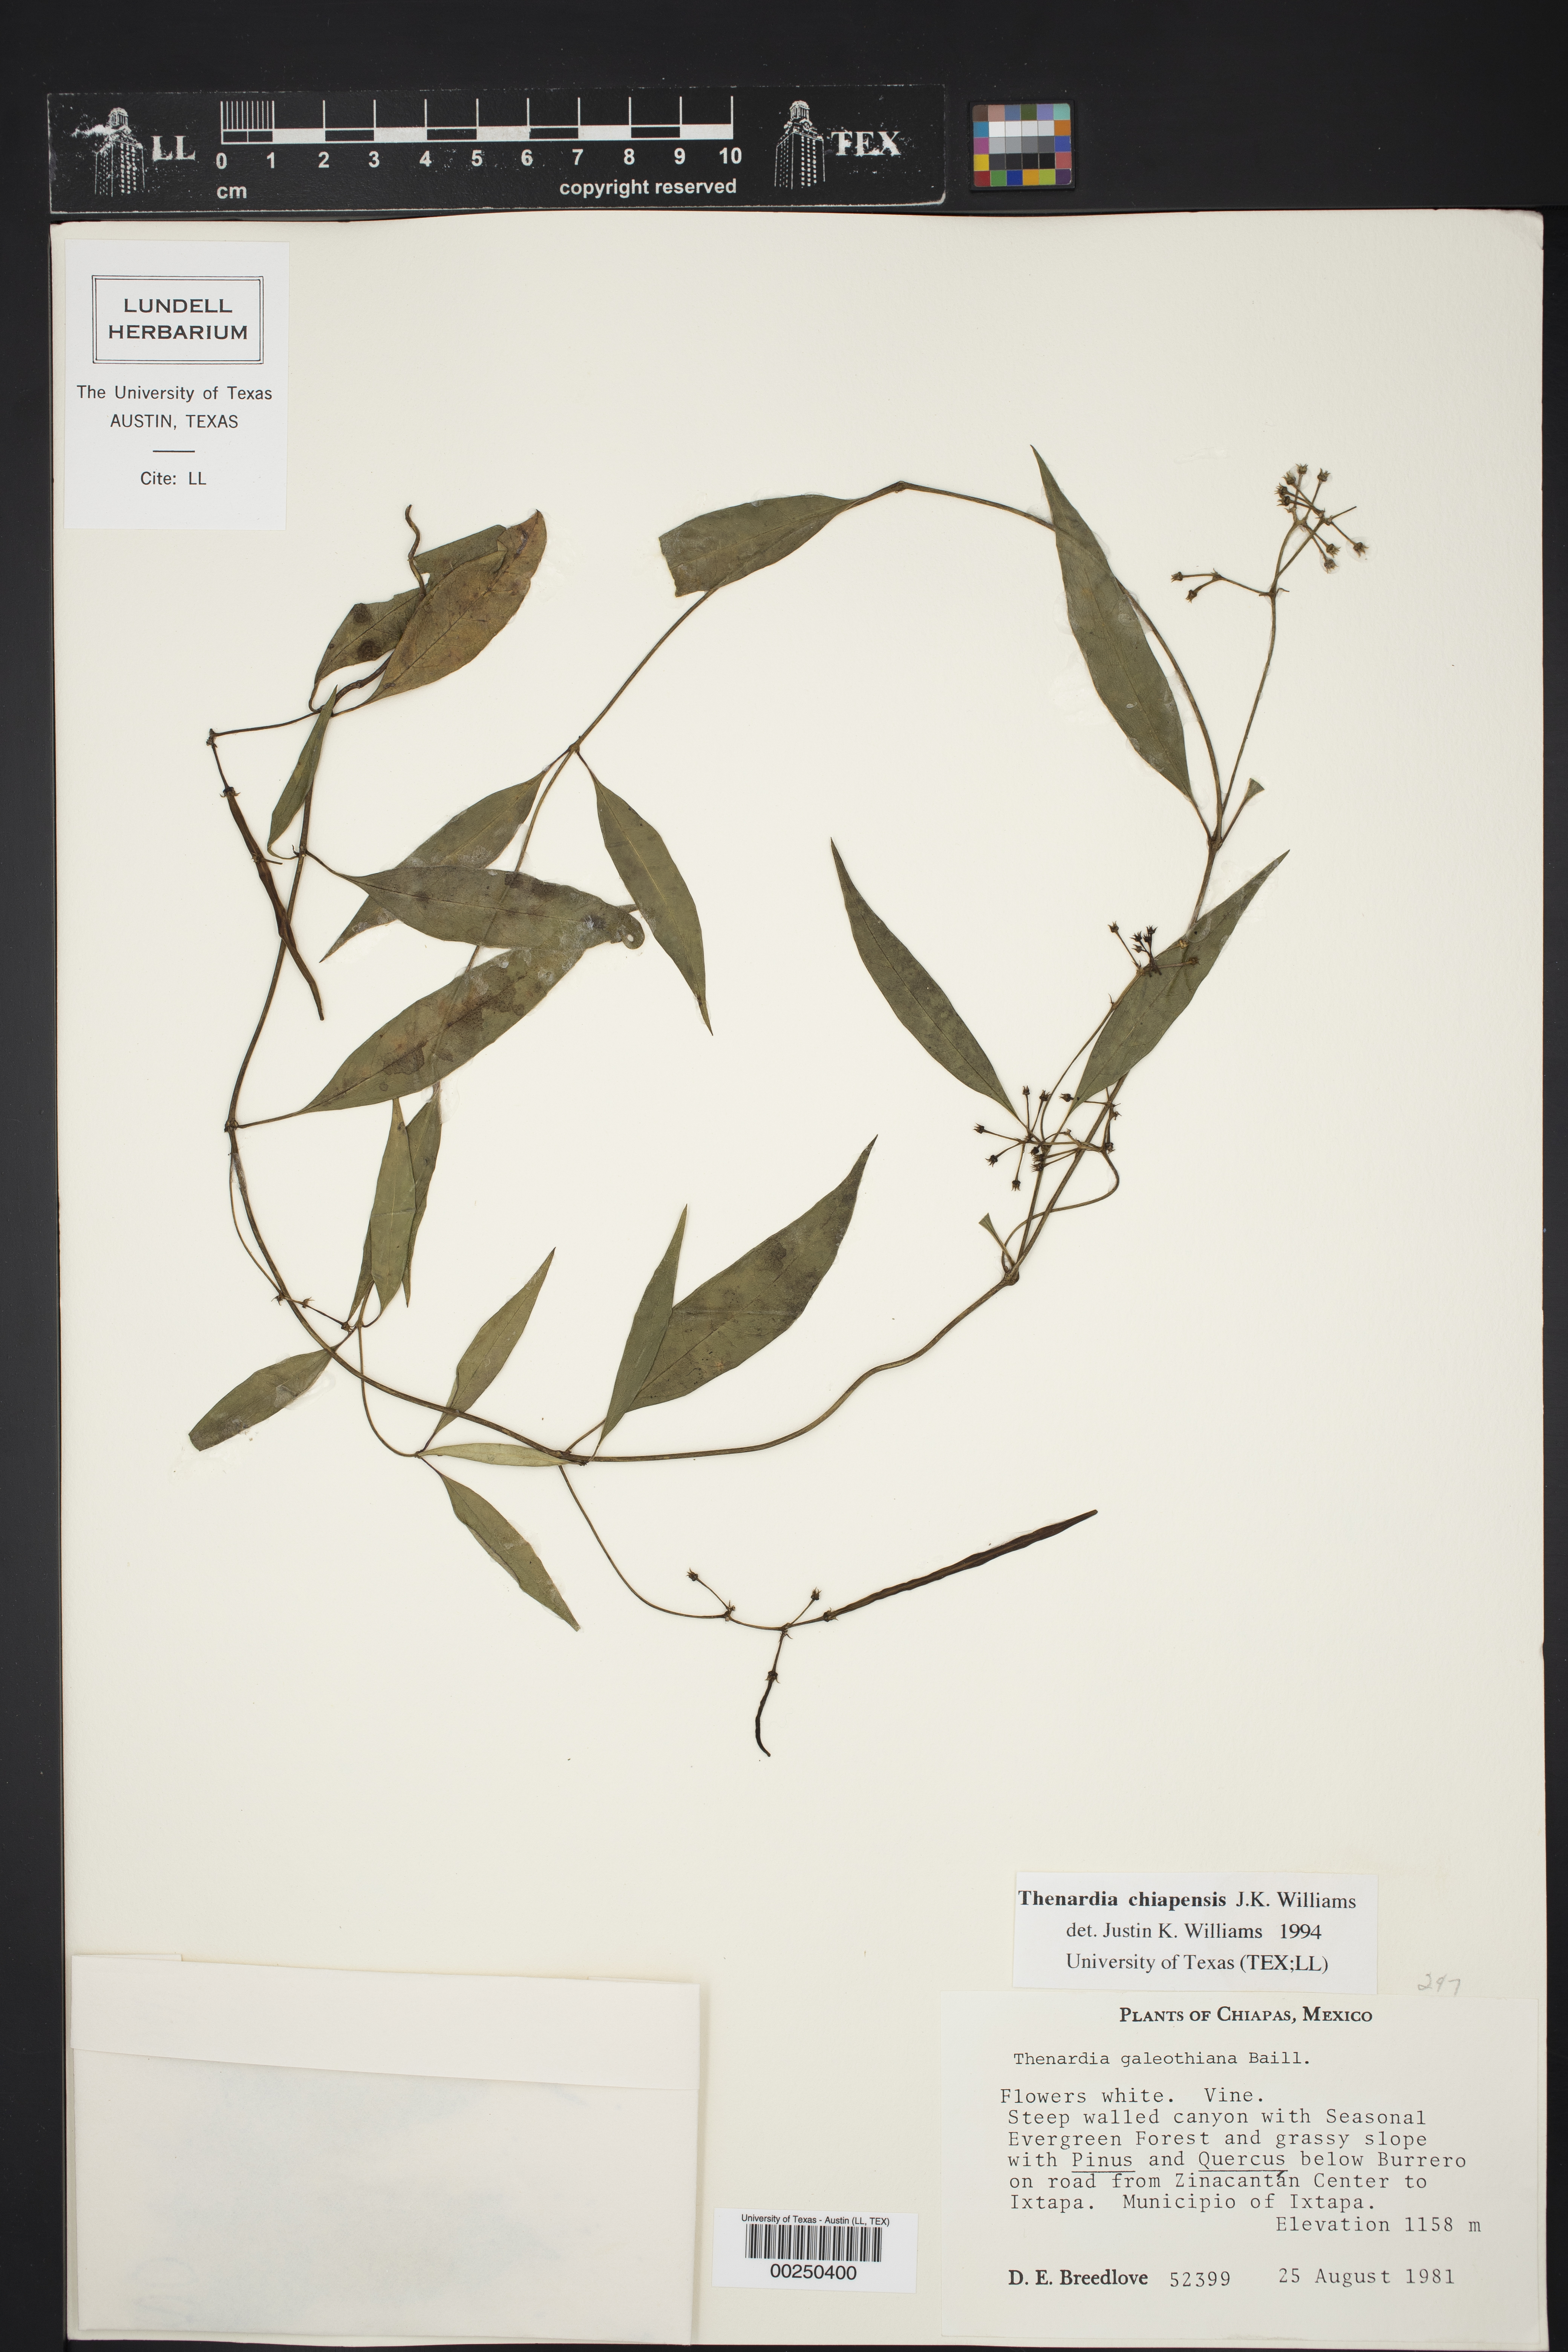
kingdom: Plantae
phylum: Tracheophyta
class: Magnoliopsida
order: Gentianales
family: Apocynaceae
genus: Thenardia
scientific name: Thenardia chiapensis
